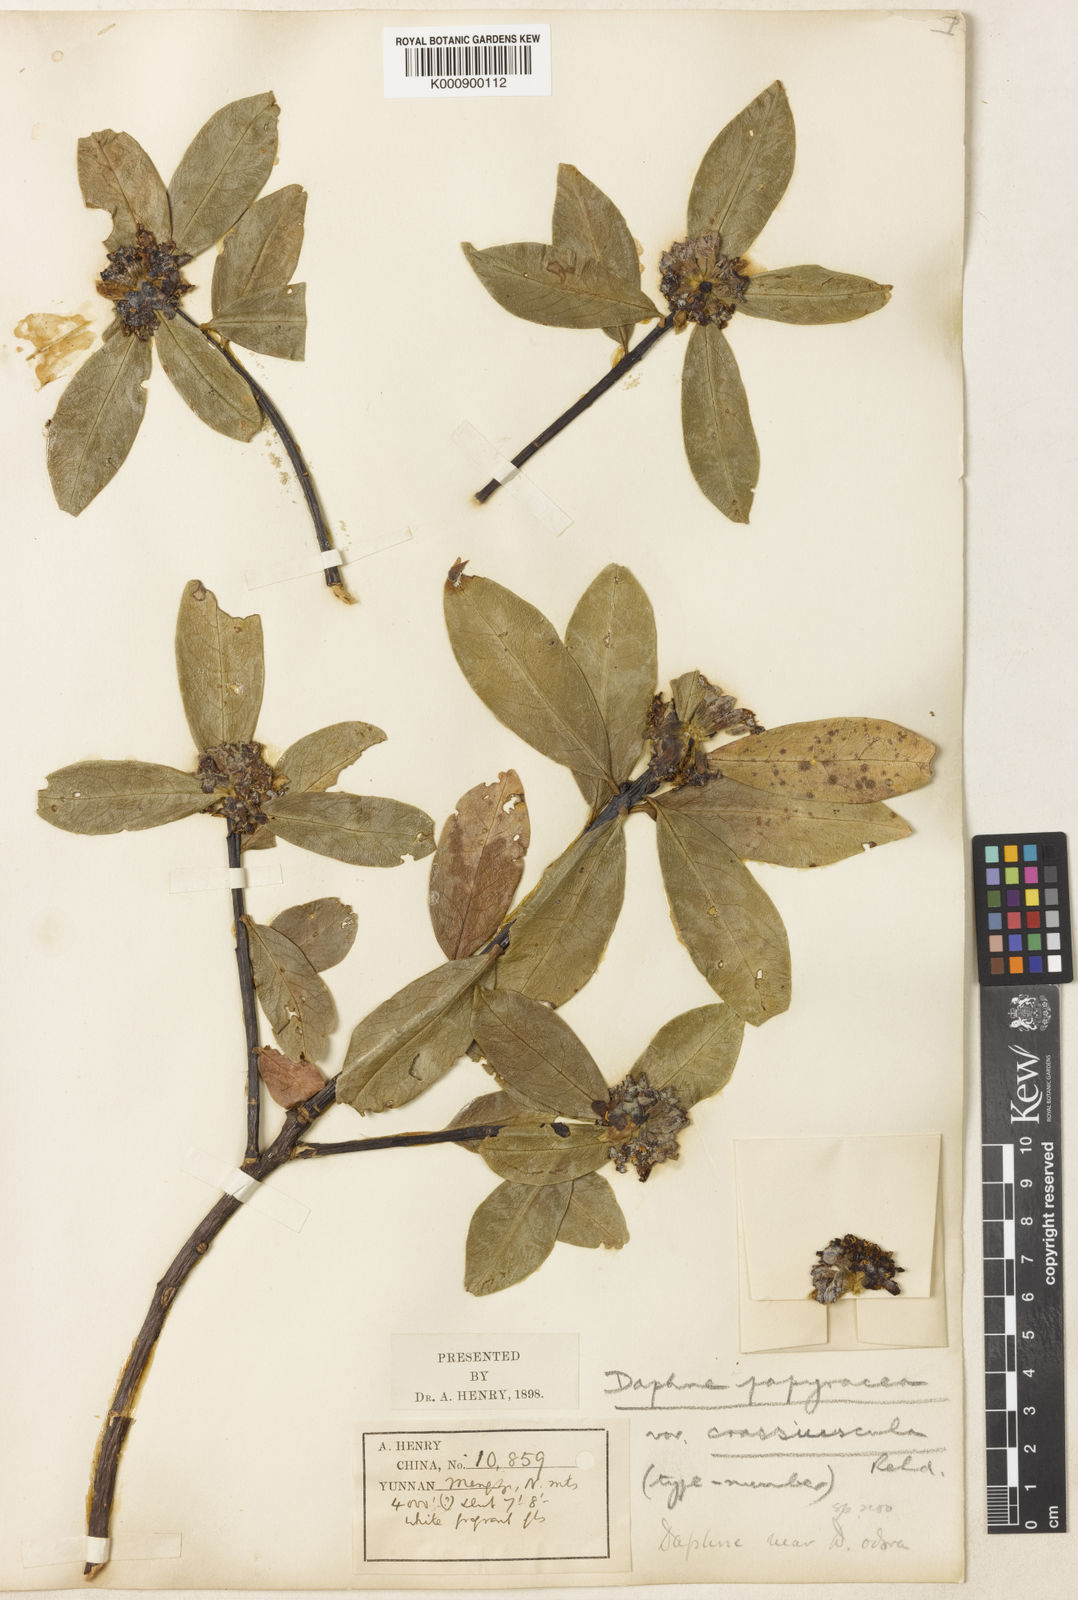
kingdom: Plantae
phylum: Tracheophyta
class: Magnoliopsida
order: Malvales
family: Thymelaeaceae
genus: Daphne
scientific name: Daphne papyracea
